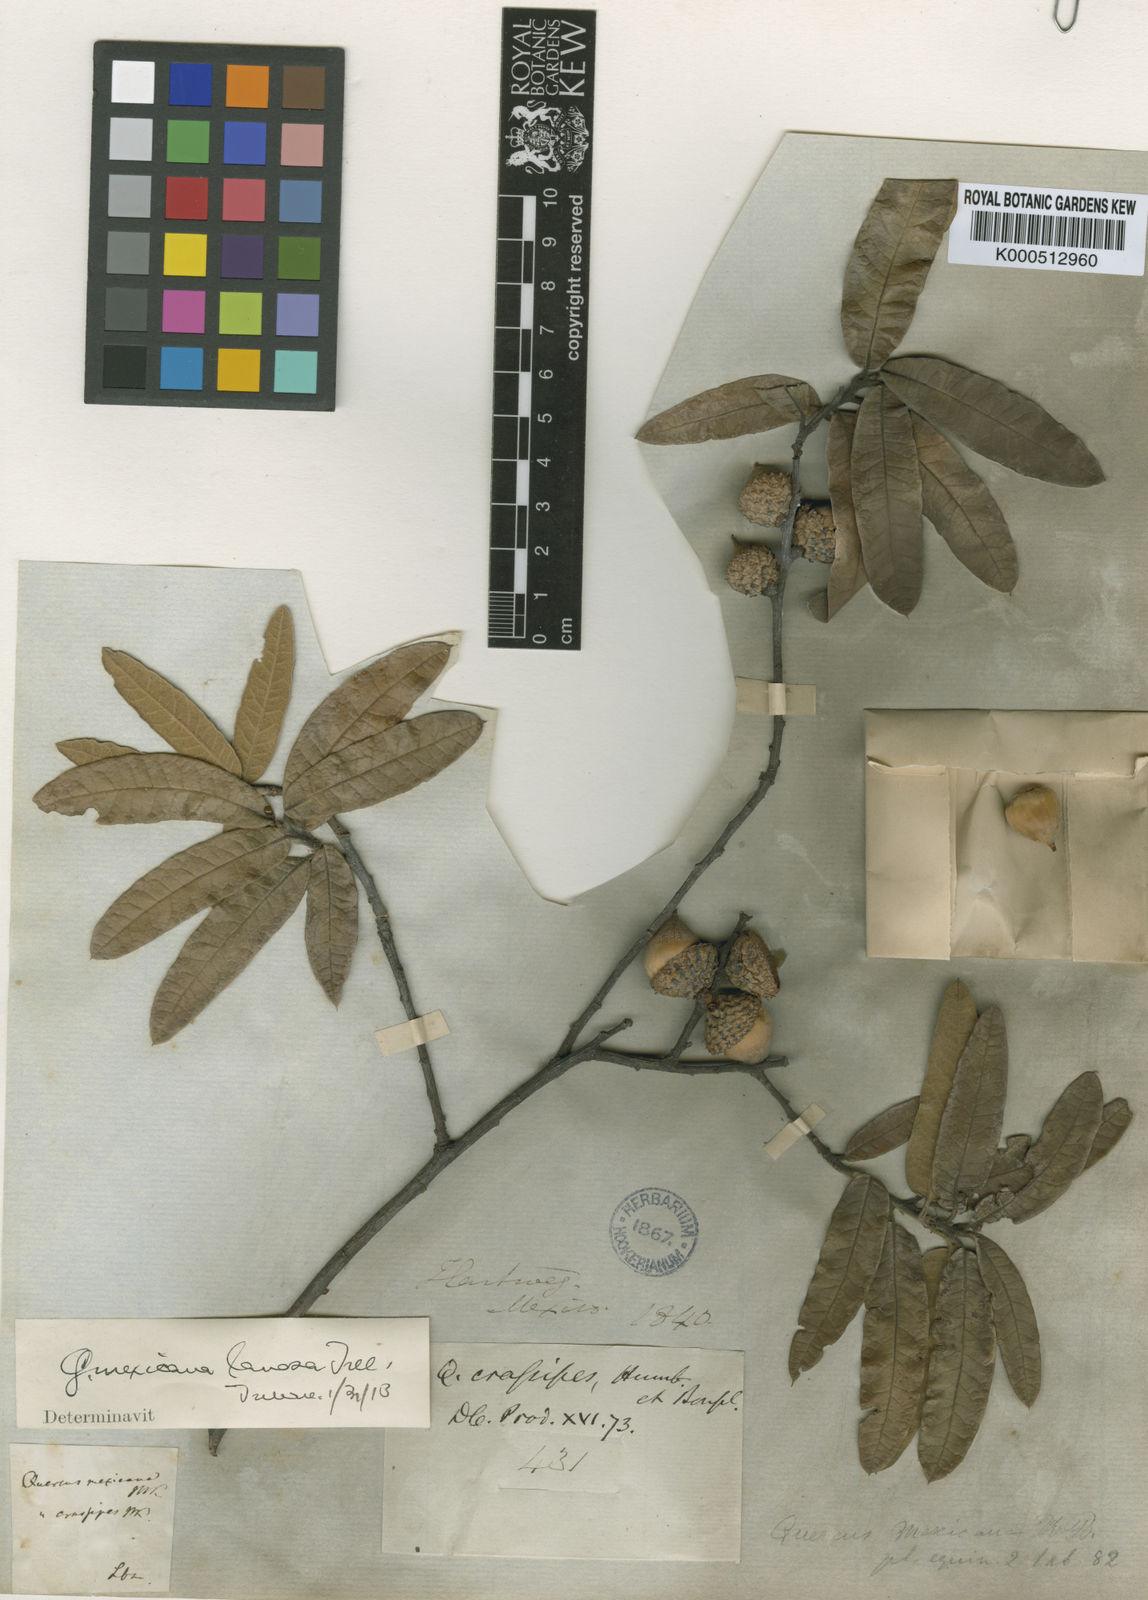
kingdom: Plantae
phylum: Tracheophyta
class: Magnoliopsida
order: Fagales
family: Fagaceae
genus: Quercus
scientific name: Quercus mexicana
